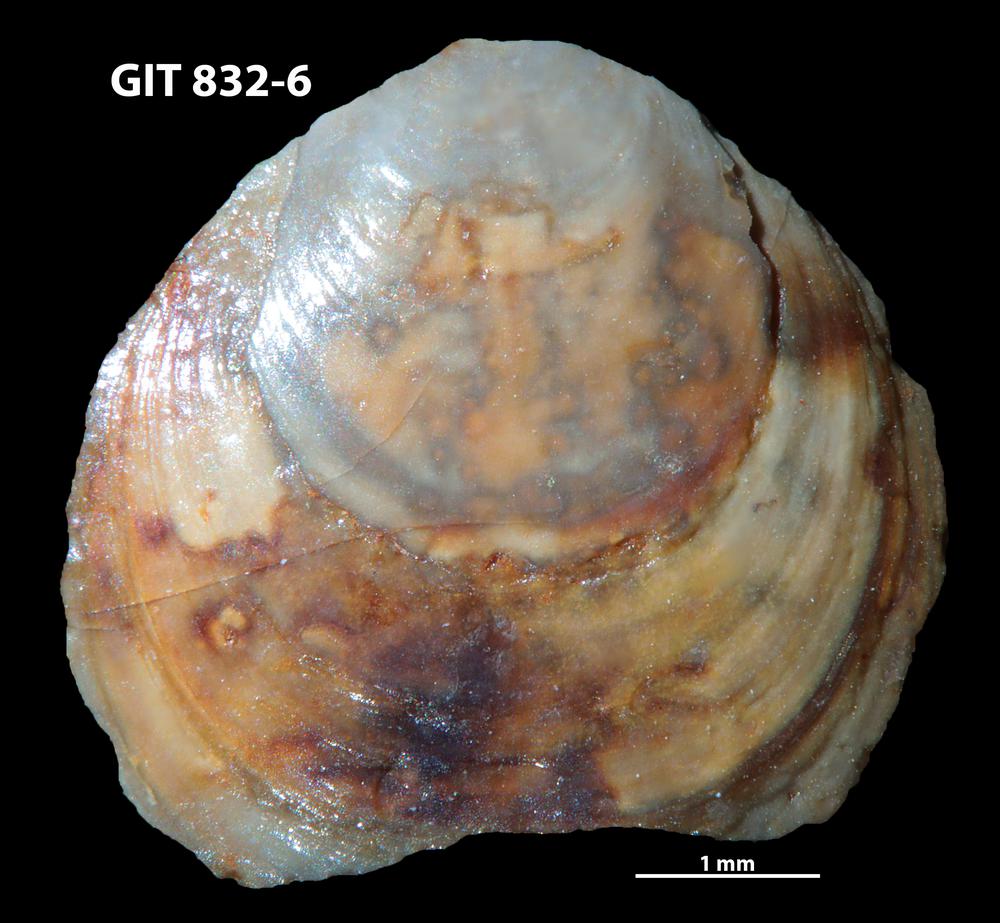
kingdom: Animalia
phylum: Brachiopoda
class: Lingulata
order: Lingulida
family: Obolidae
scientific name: Obolidae
